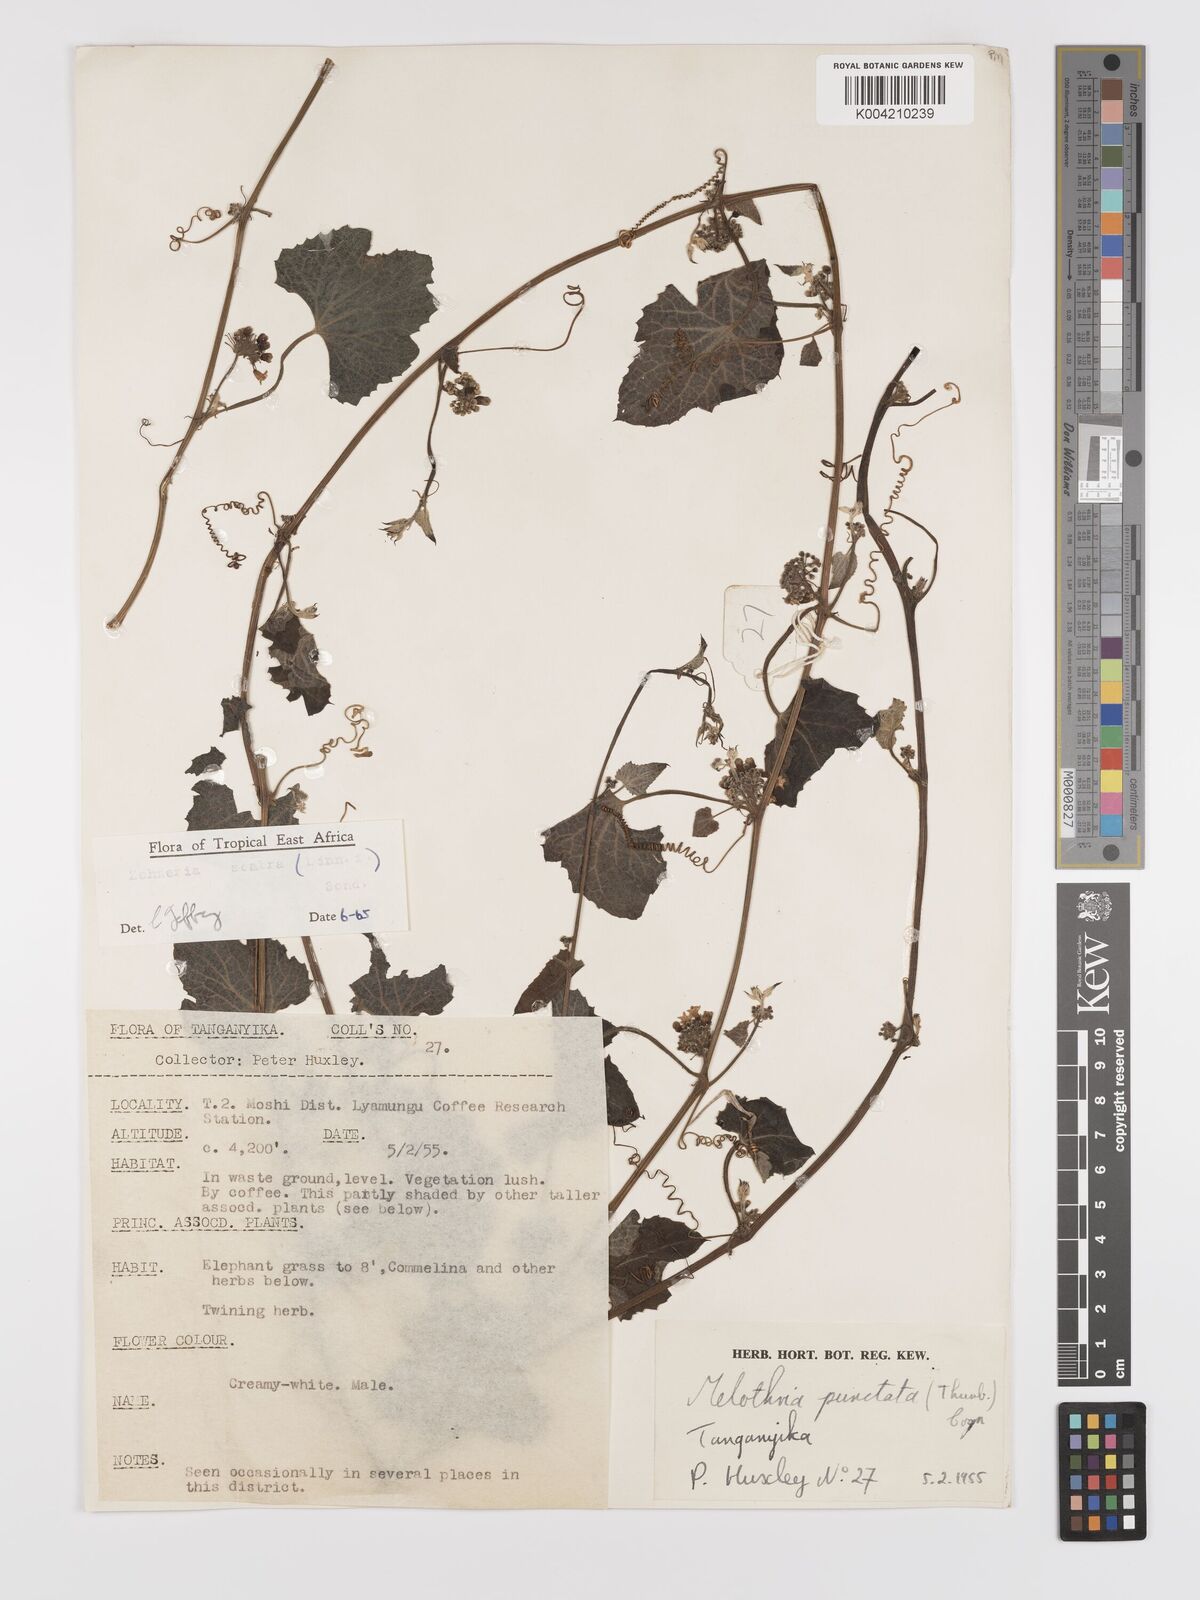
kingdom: Plantae
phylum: Tracheophyta
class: Magnoliopsida
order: Cucurbitales
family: Cucurbitaceae
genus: Zehneria
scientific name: Zehneria scabra
